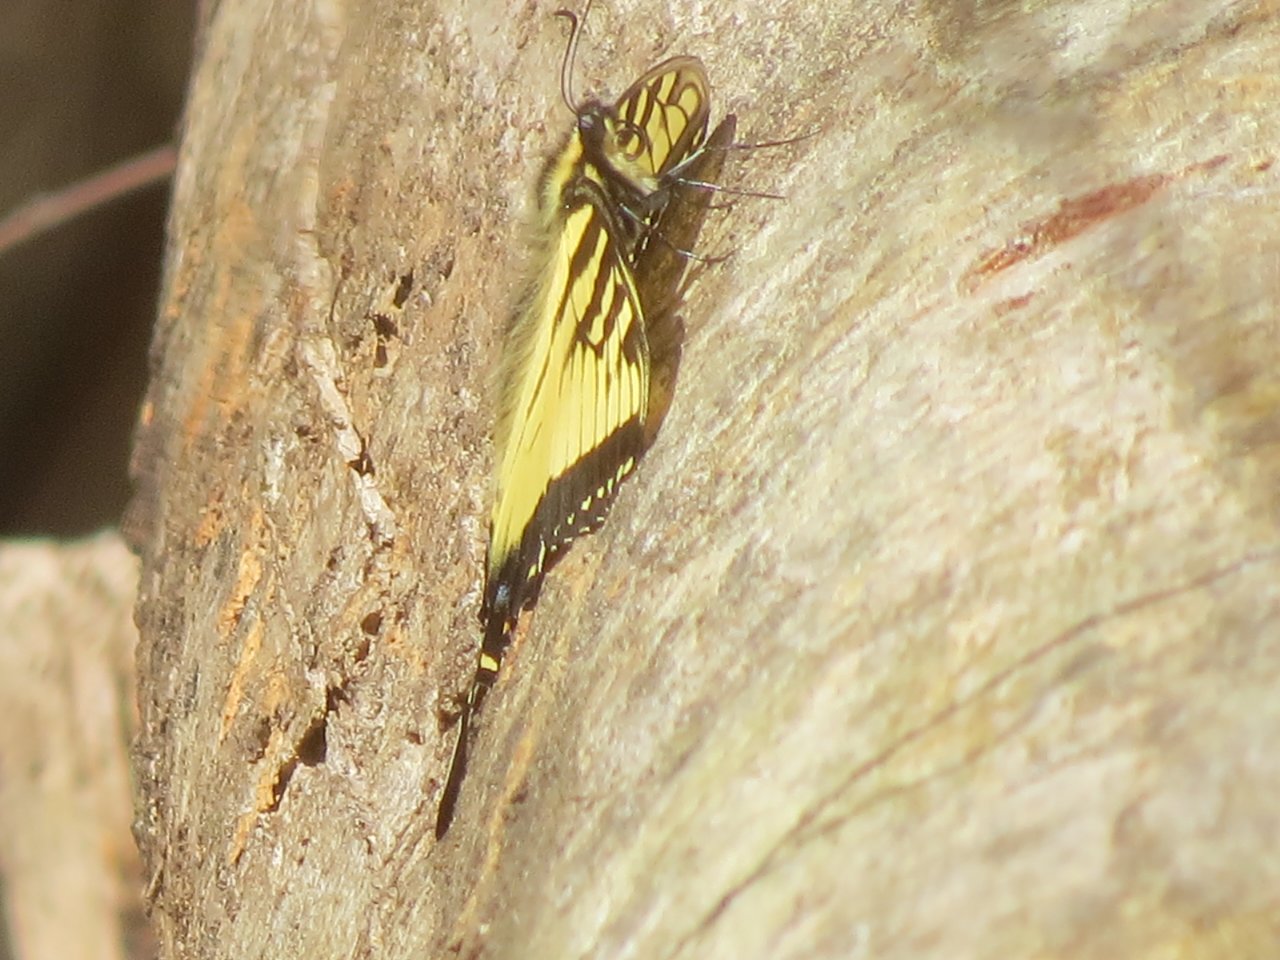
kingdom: Animalia
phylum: Arthropoda
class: Insecta
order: Lepidoptera
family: Papilionidae
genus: Pterourus
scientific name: Pterourus glaucus
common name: Eastern Tiger Swallowtail
